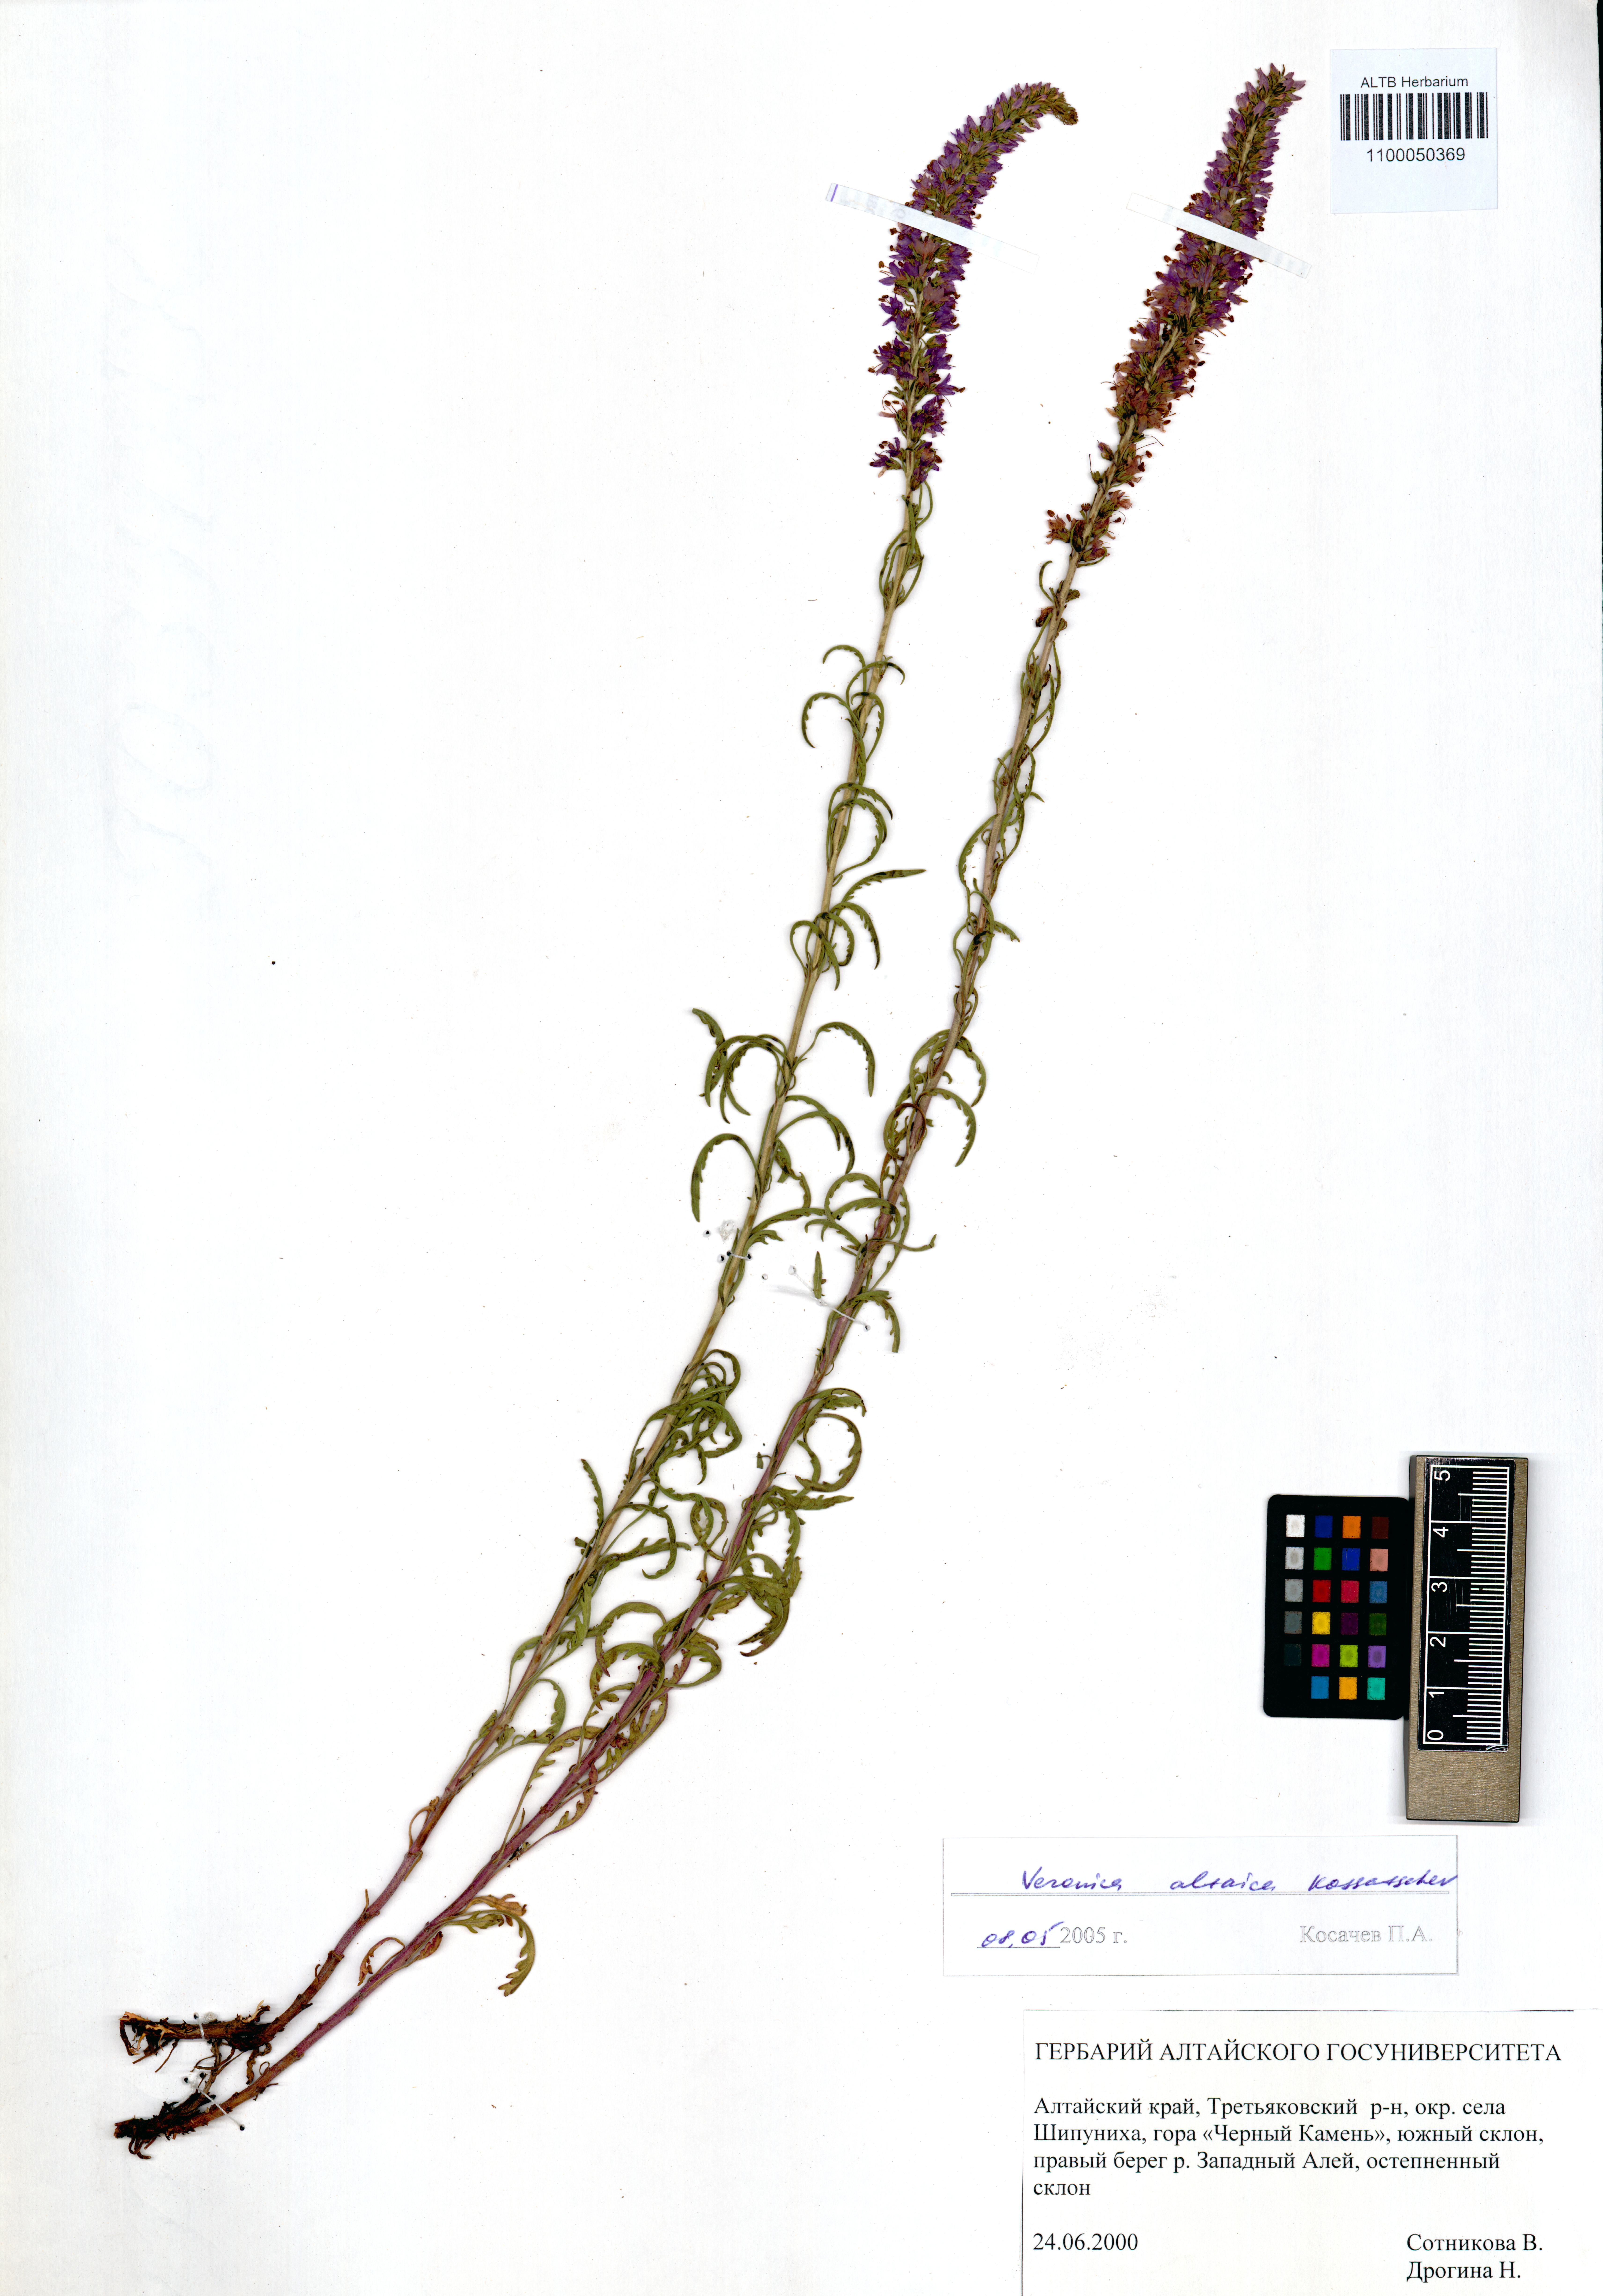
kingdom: Plantae
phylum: Tracheophyta
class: Magnoliopsida
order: Lamiales
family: Plantaginaceae
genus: Veronica
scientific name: Veronica altaica
